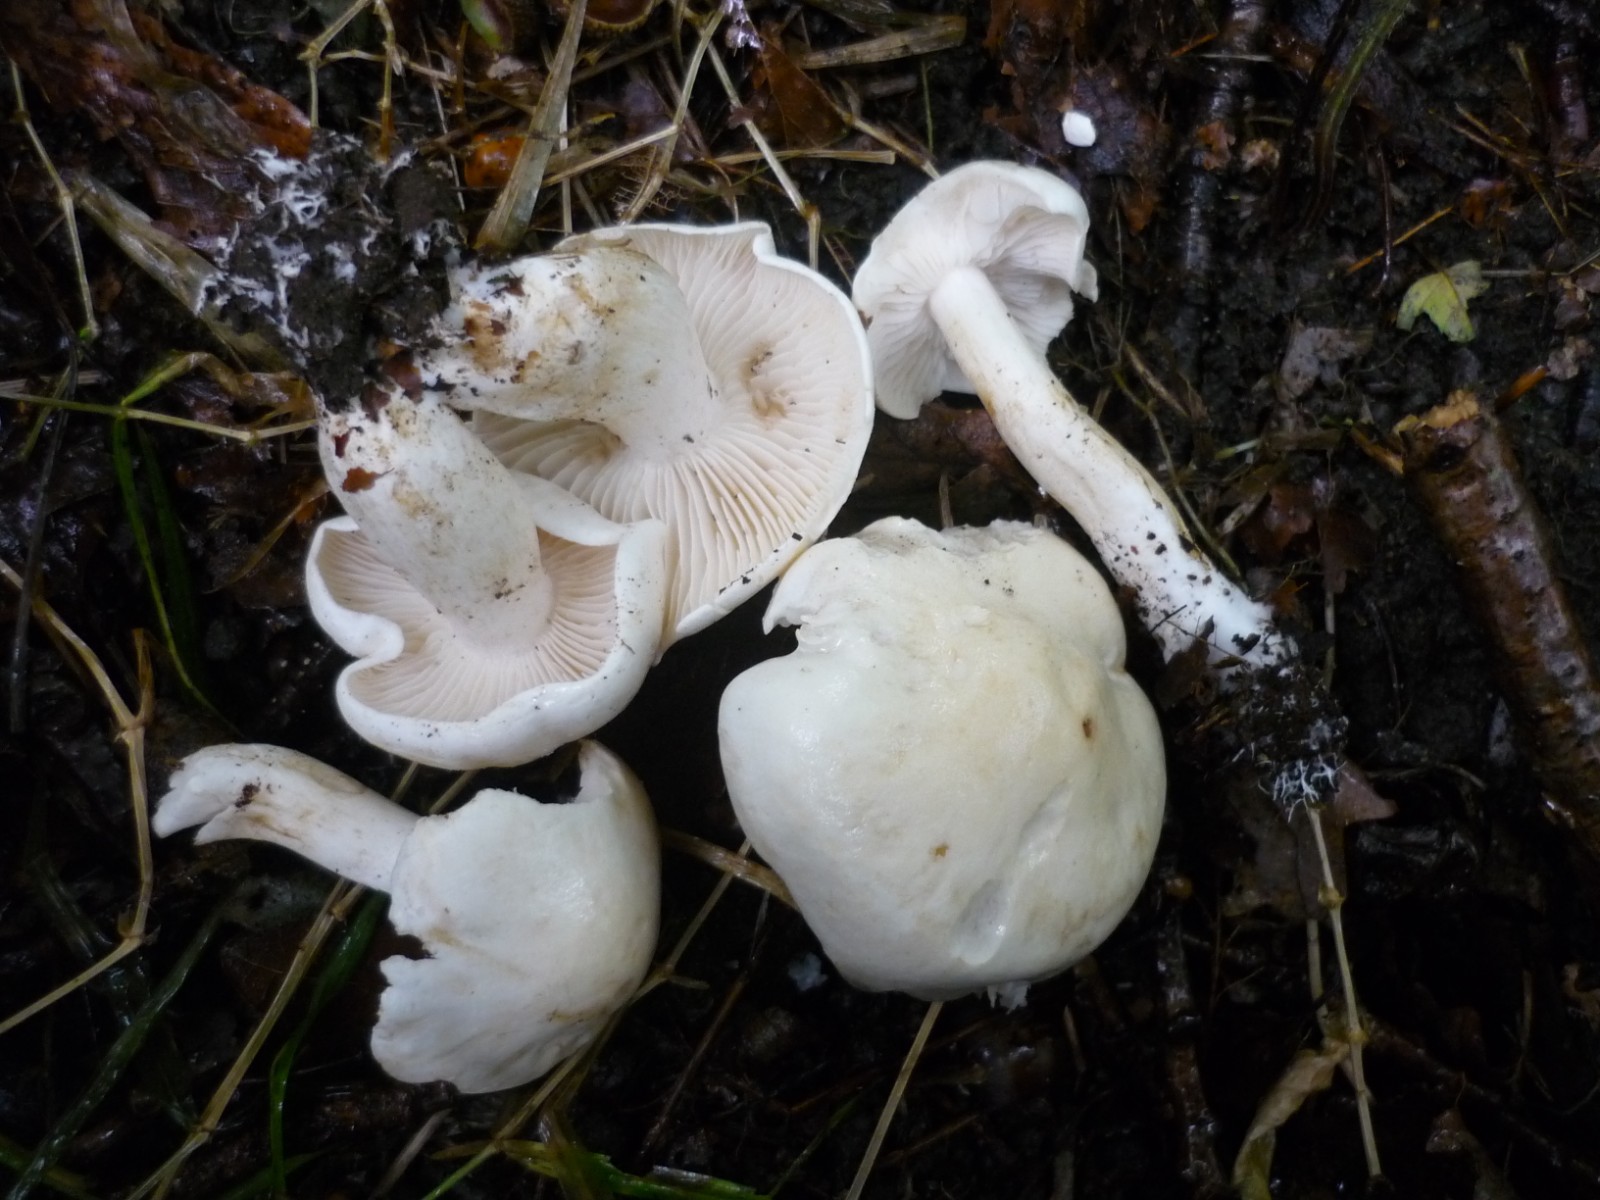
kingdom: Fungi
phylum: Basidiomycota
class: Agaricomycetes
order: Agaricales
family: Tricholomataceae
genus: Tricholoma
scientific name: Tricholoma lascivum
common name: stinkende ridderhat
